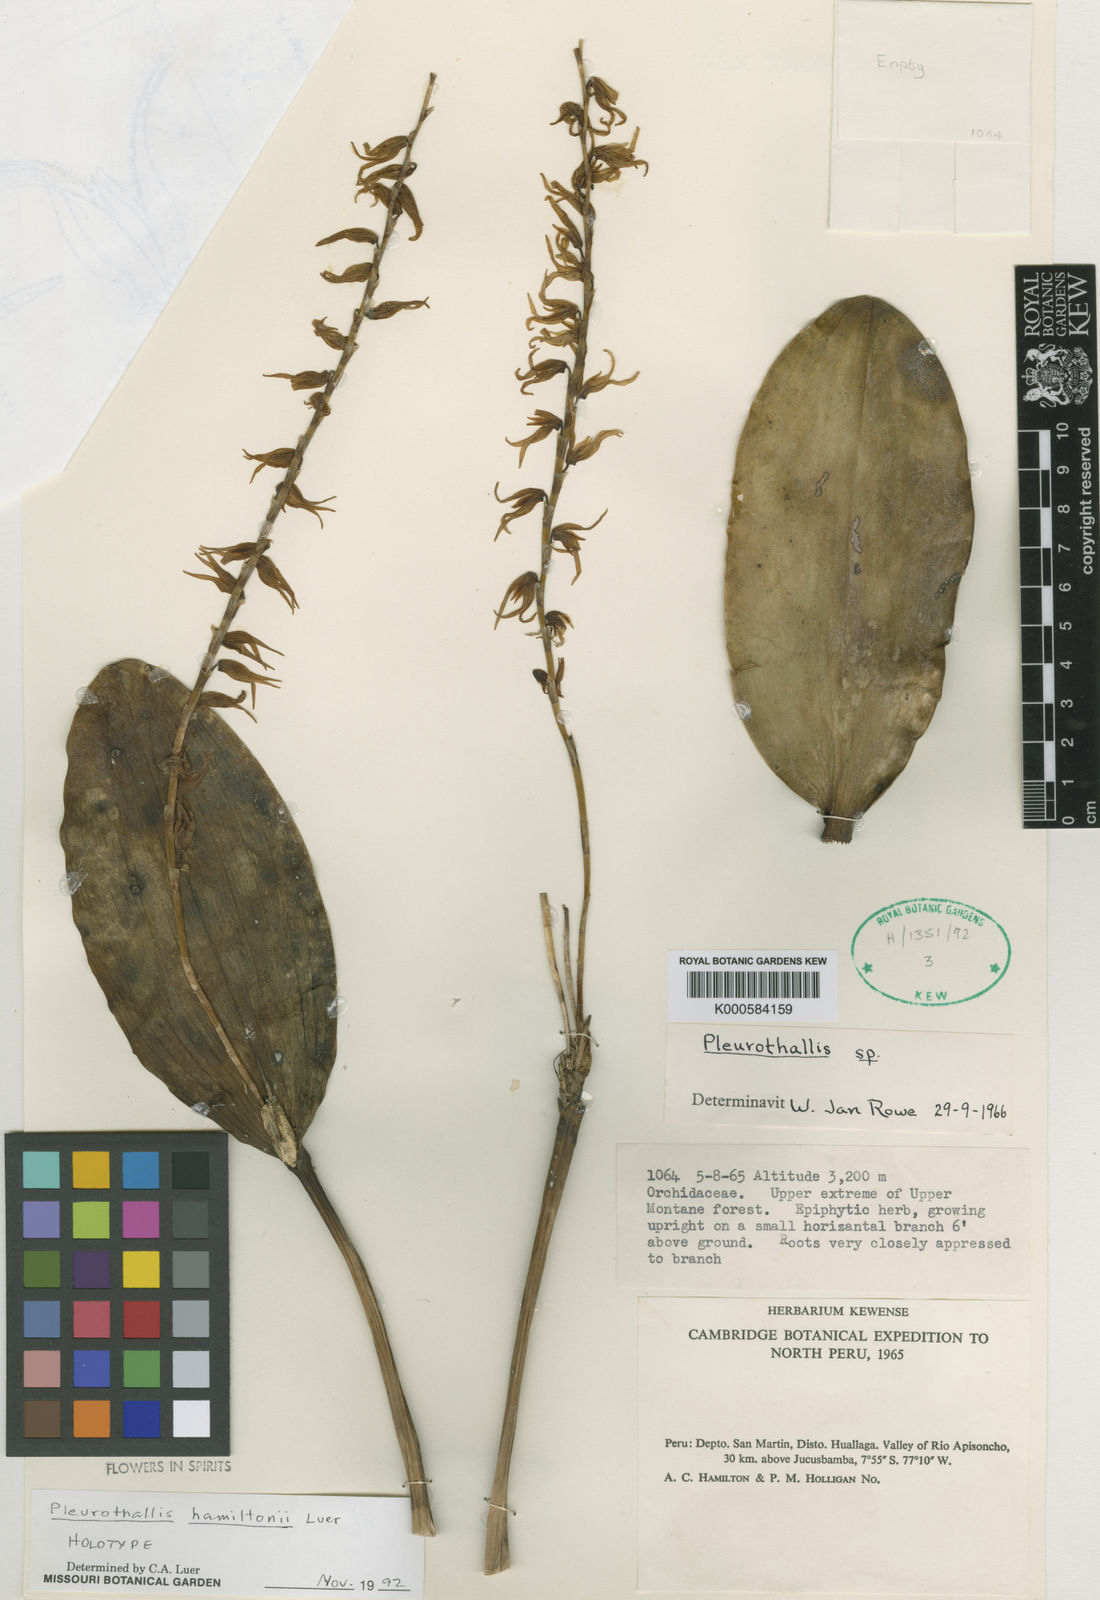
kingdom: Plantae
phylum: Tracheophyta
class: Liliopsida
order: Asparagales
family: Orchidaceae
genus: Stelis
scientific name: Stelis hamiltoniana
